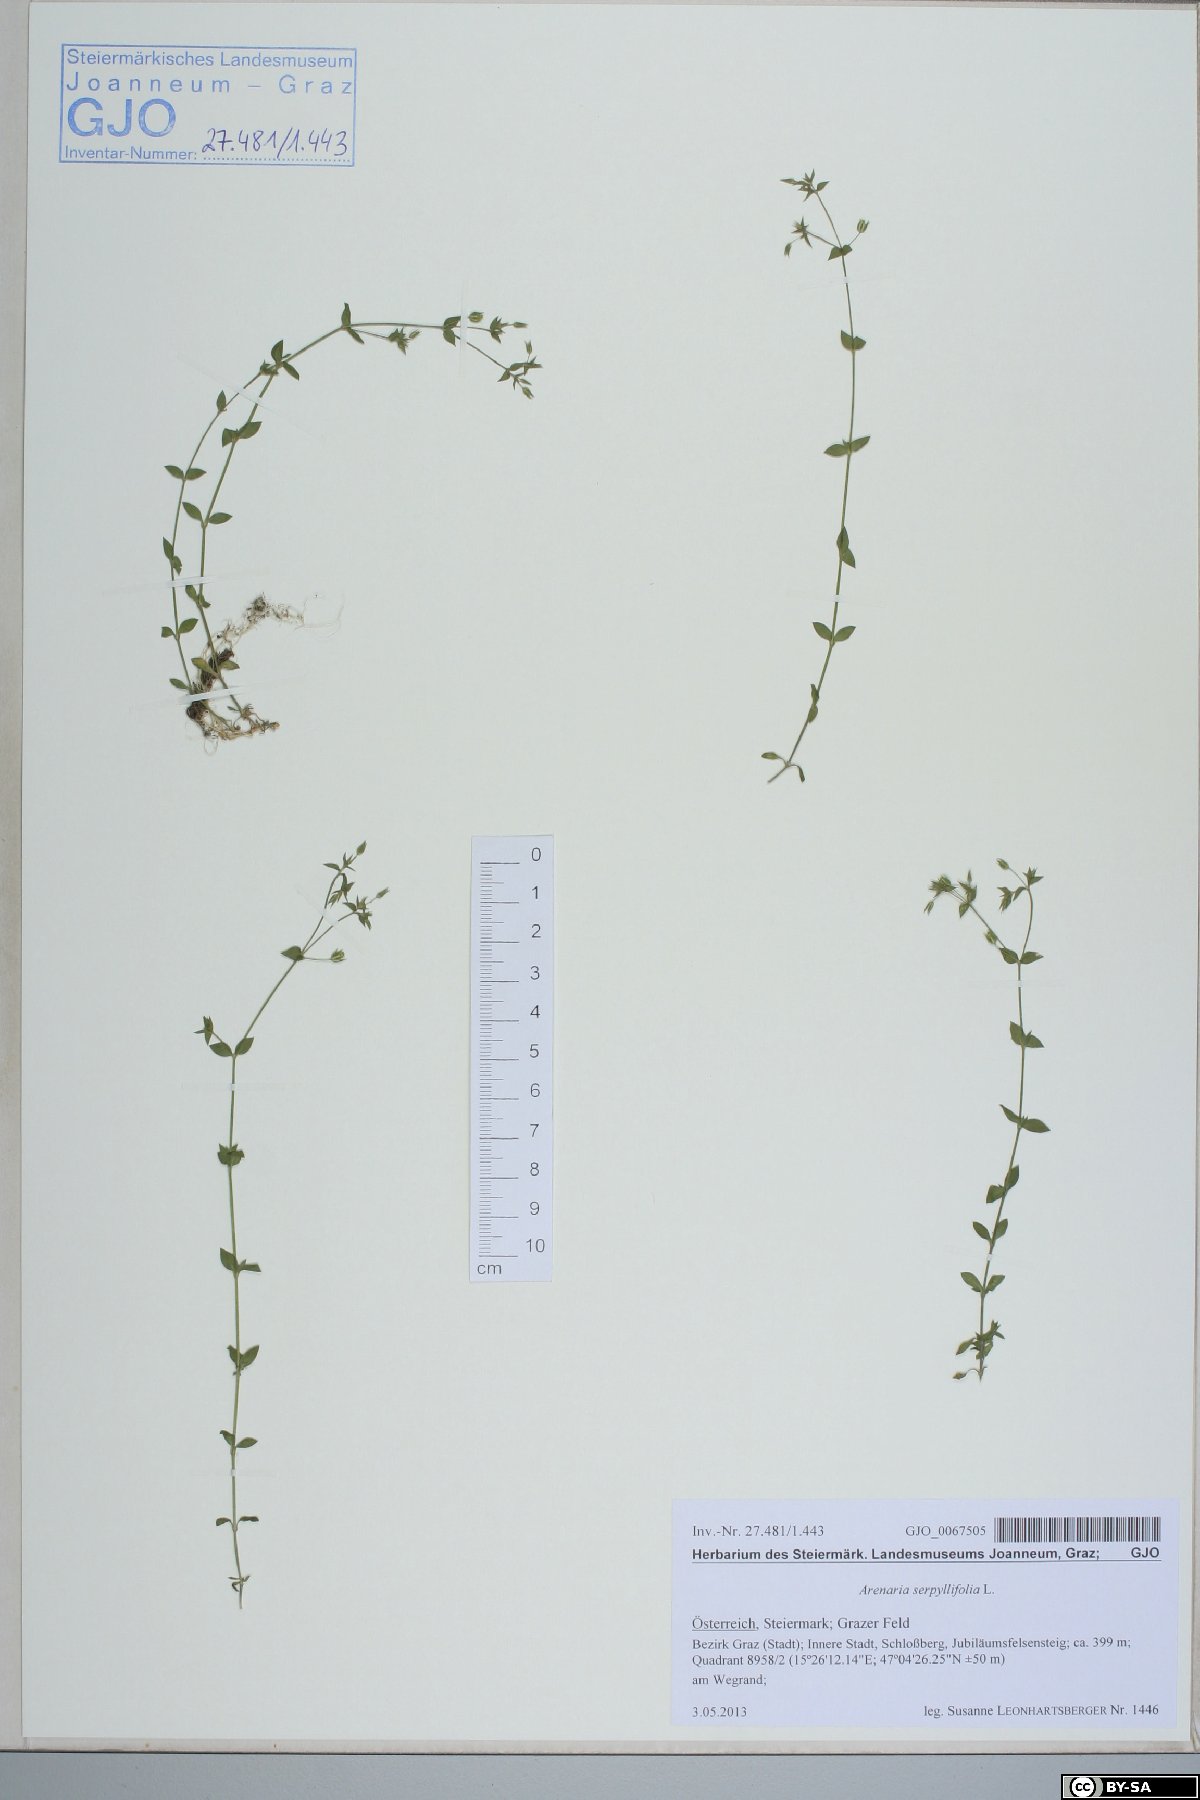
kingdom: Plantae
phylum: Tracheophyta
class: Magnoliopsida
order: Caryophyllales
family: Caryophyllaceae
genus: Arenaria
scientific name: Arenaria serpyllifolia
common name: Thyme-leaved sandwort
